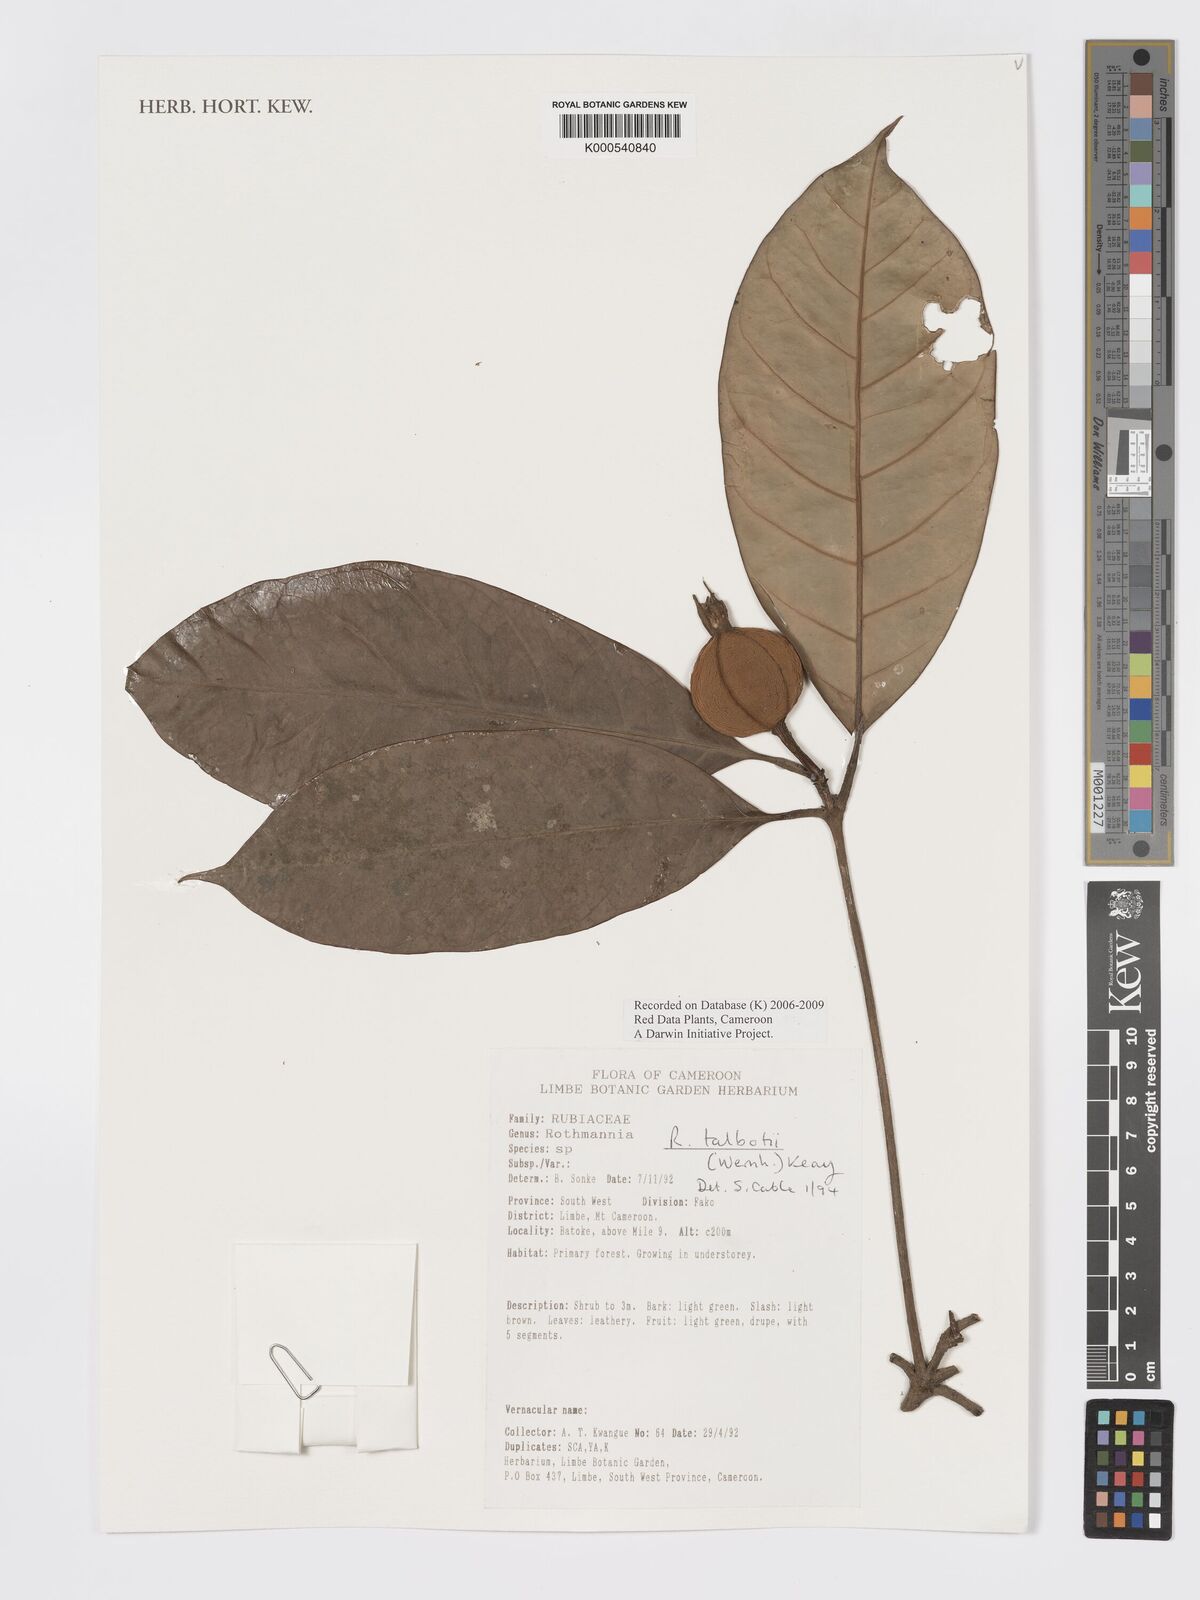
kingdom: Plantae
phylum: Tracheophyta
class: Magnoliopsida
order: Gentianales
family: Rubiaceae
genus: Rothmannia
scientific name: Rothmannia talbotii
